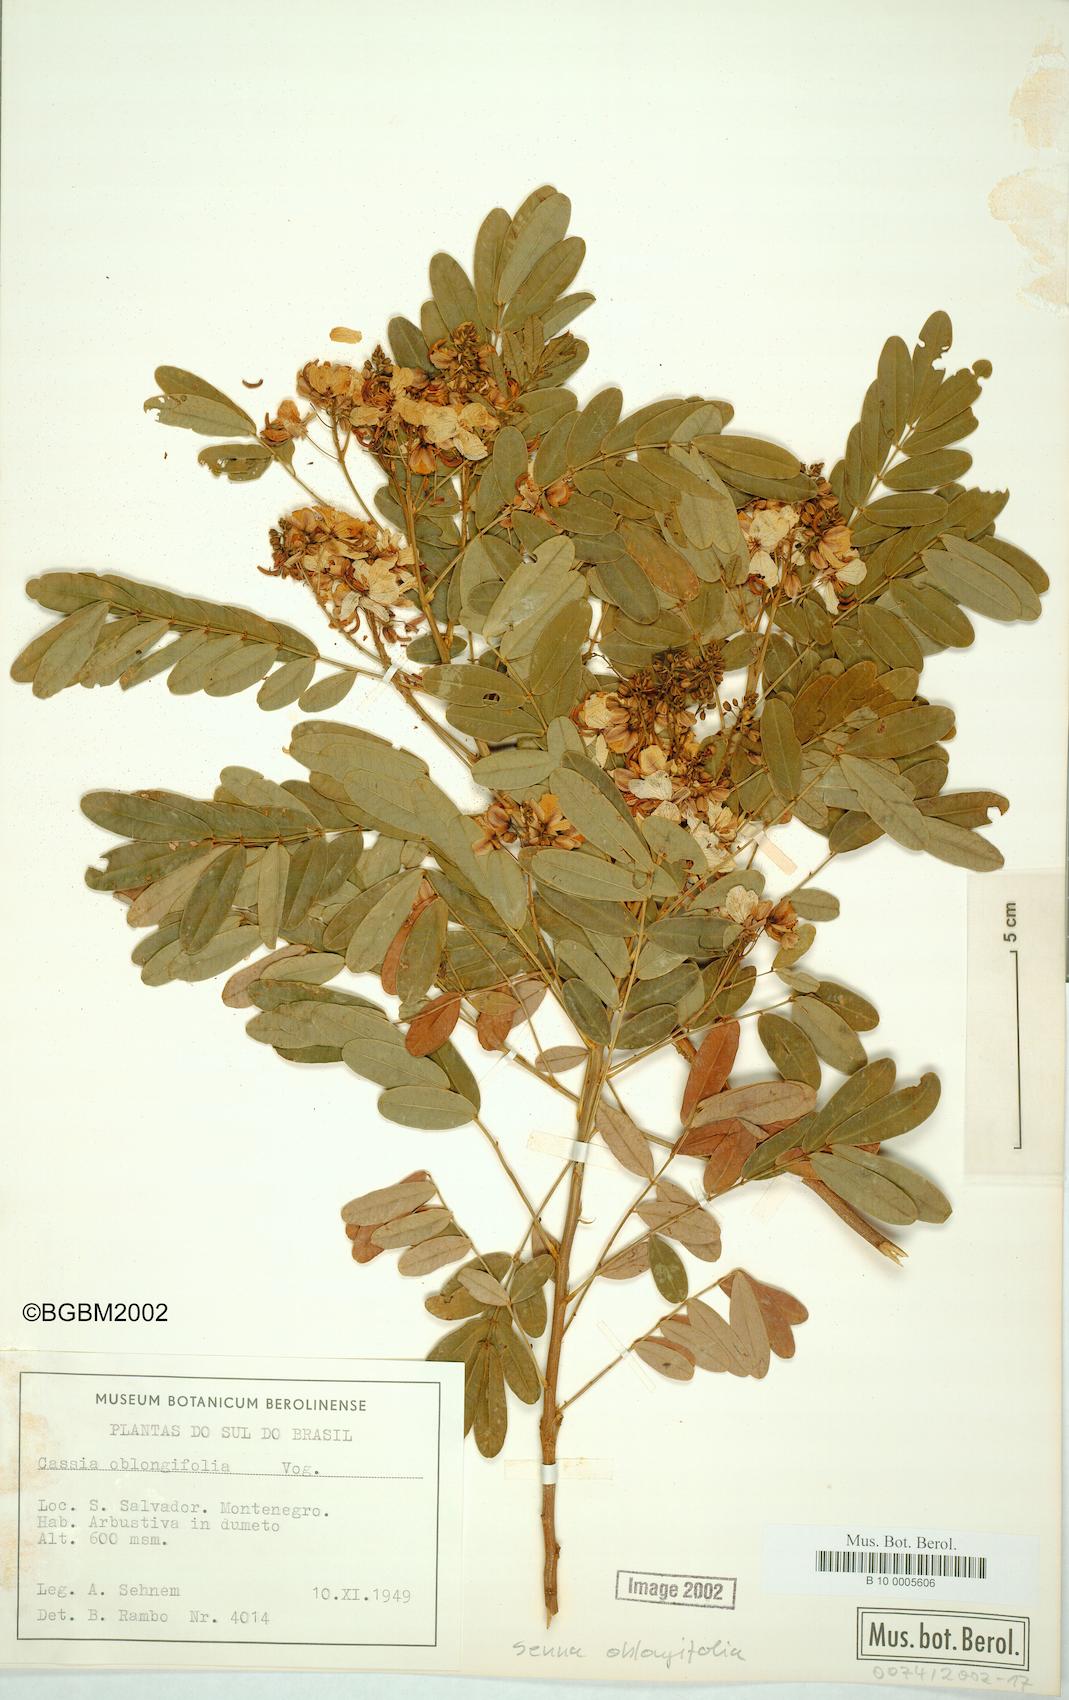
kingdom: Plantae
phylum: Tracheophyta
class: Magnoliopsida
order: Fabales
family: Fabaceae
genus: Senna
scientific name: Senna oblongifolia
